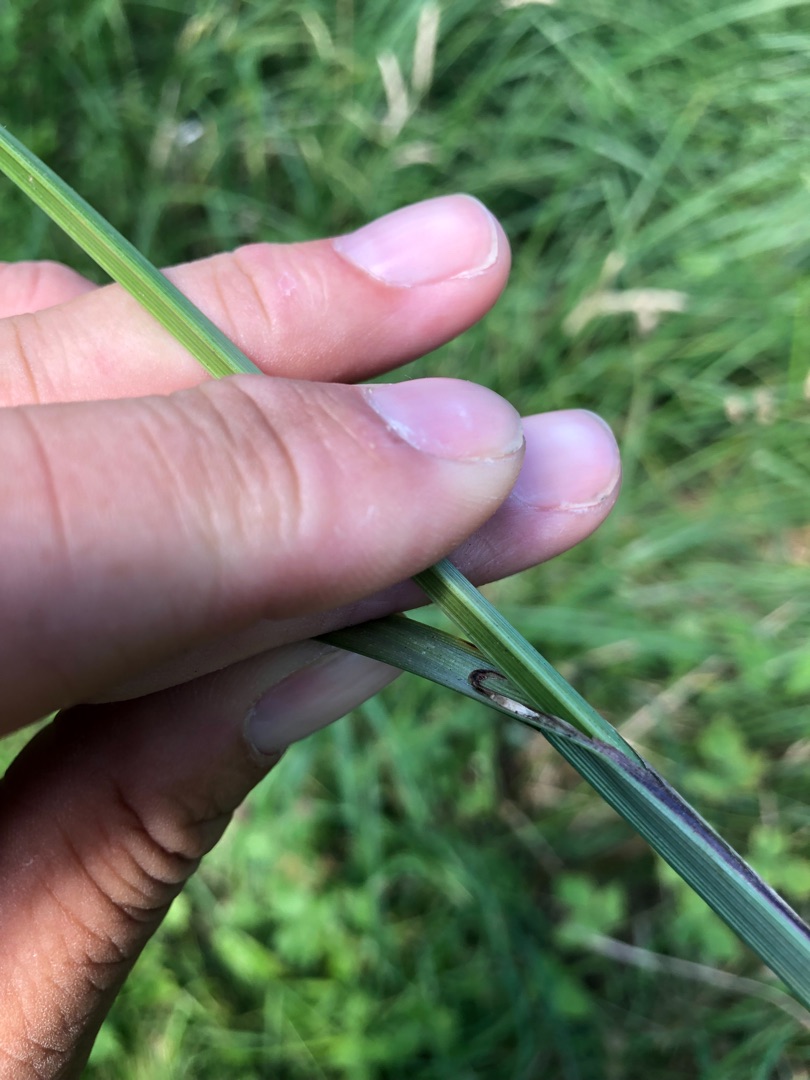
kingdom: Plantae
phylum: Tracheophyta
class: Liliopsida
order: Poales
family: Cyperaceae
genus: Carex
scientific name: Carex acutiformis
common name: Kær-star
